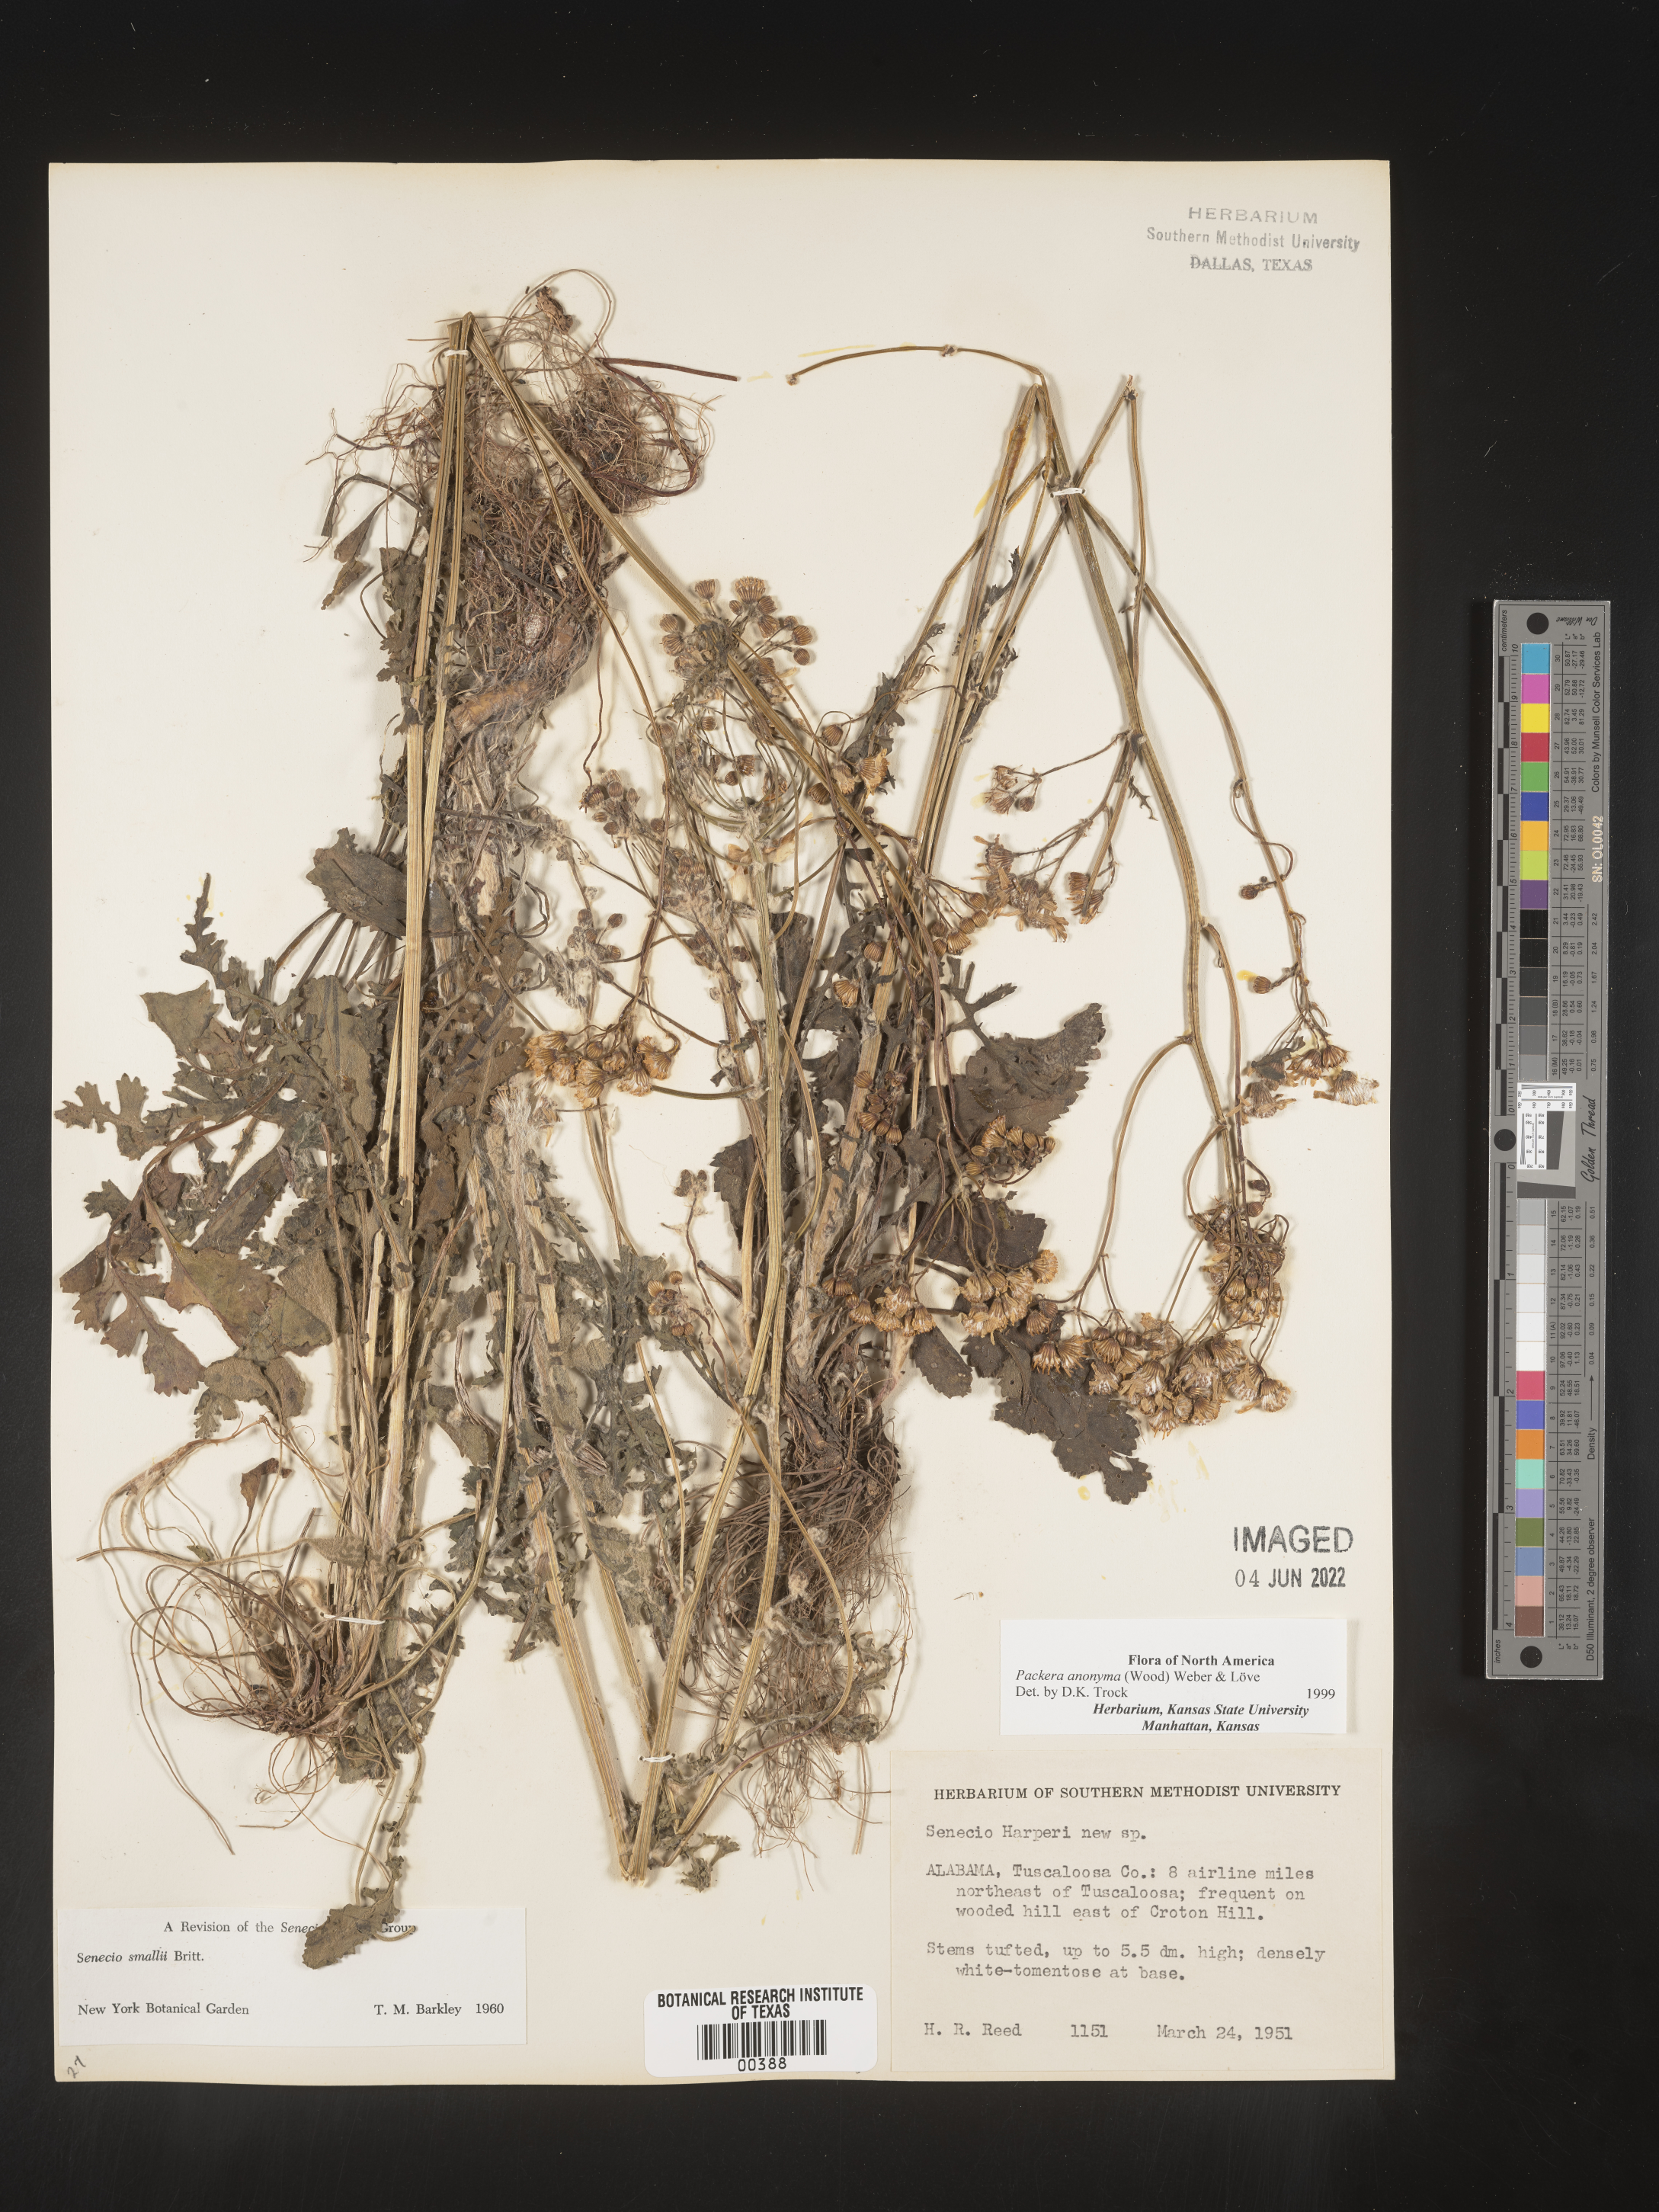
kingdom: Plantae
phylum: Tracheophyta
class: Magnoliopsida
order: Asterales
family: Asteraceae
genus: Packera
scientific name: Packera anonyma
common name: Small ragwort
